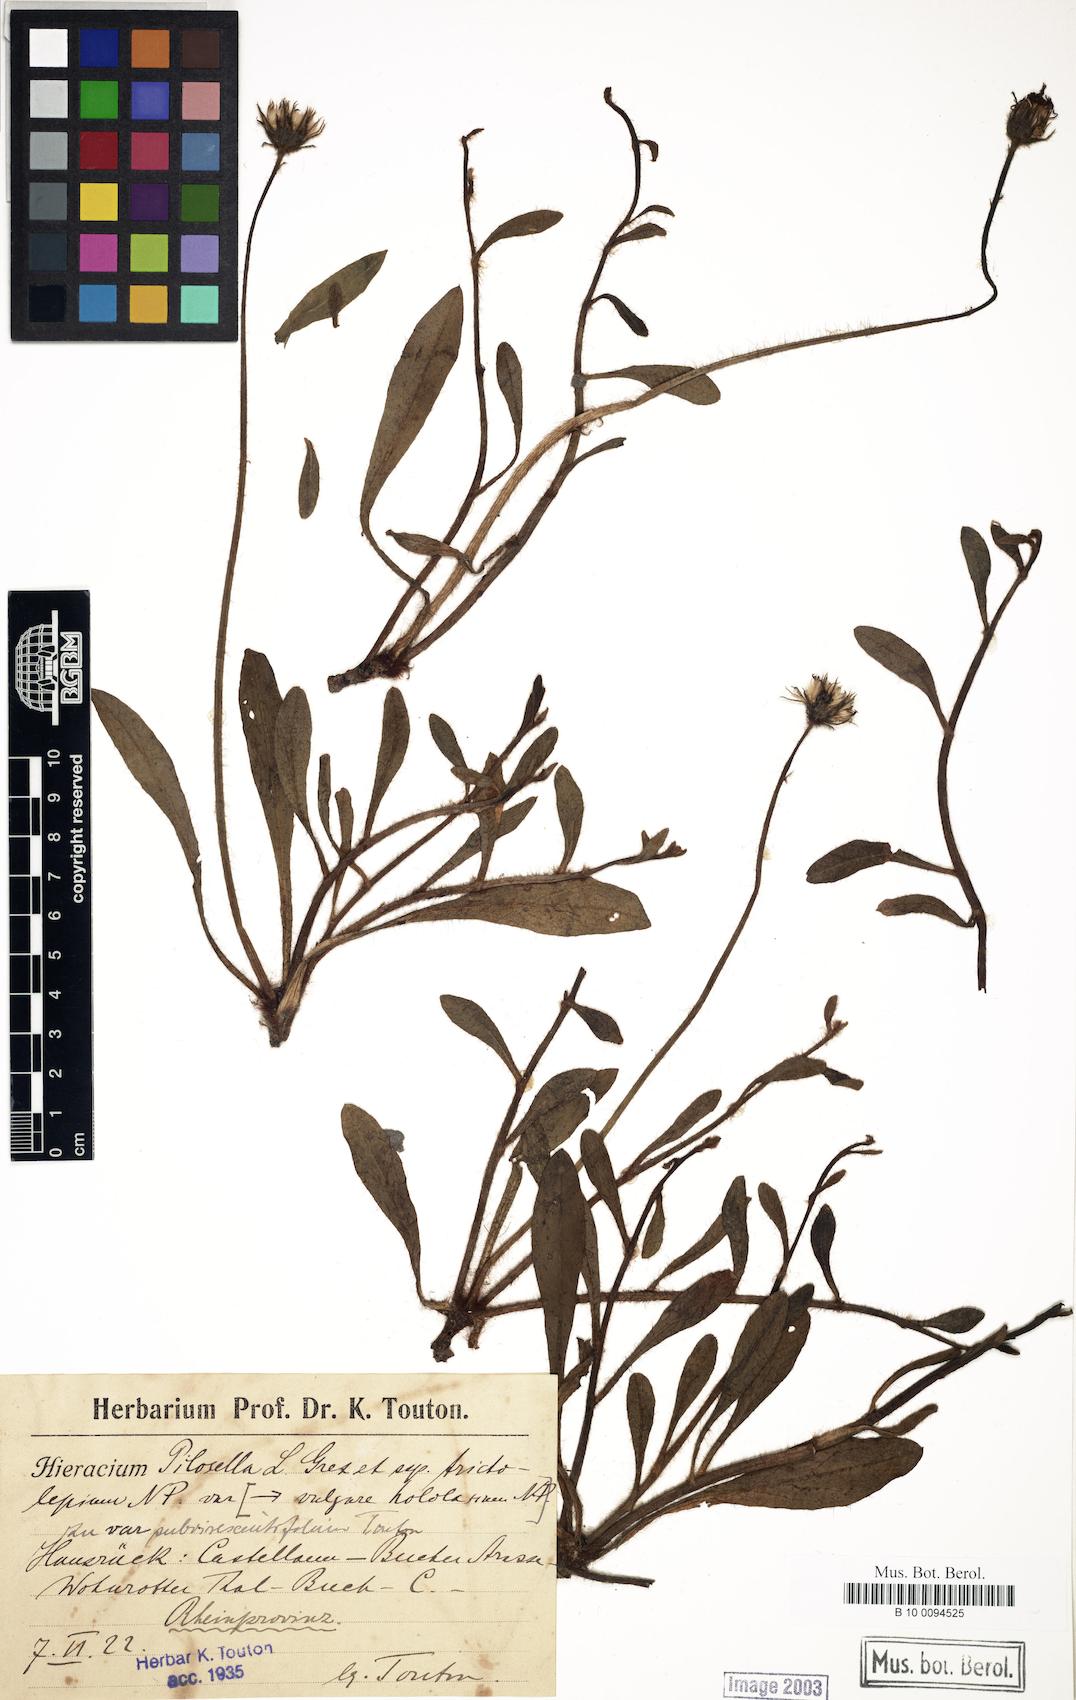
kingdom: Plantae
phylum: Tracheophyta
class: Magnoliopsida
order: Asterales
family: Asteraceae
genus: Pilosella
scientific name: Pilosella officinarum
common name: Mouse-ear hawkweed
